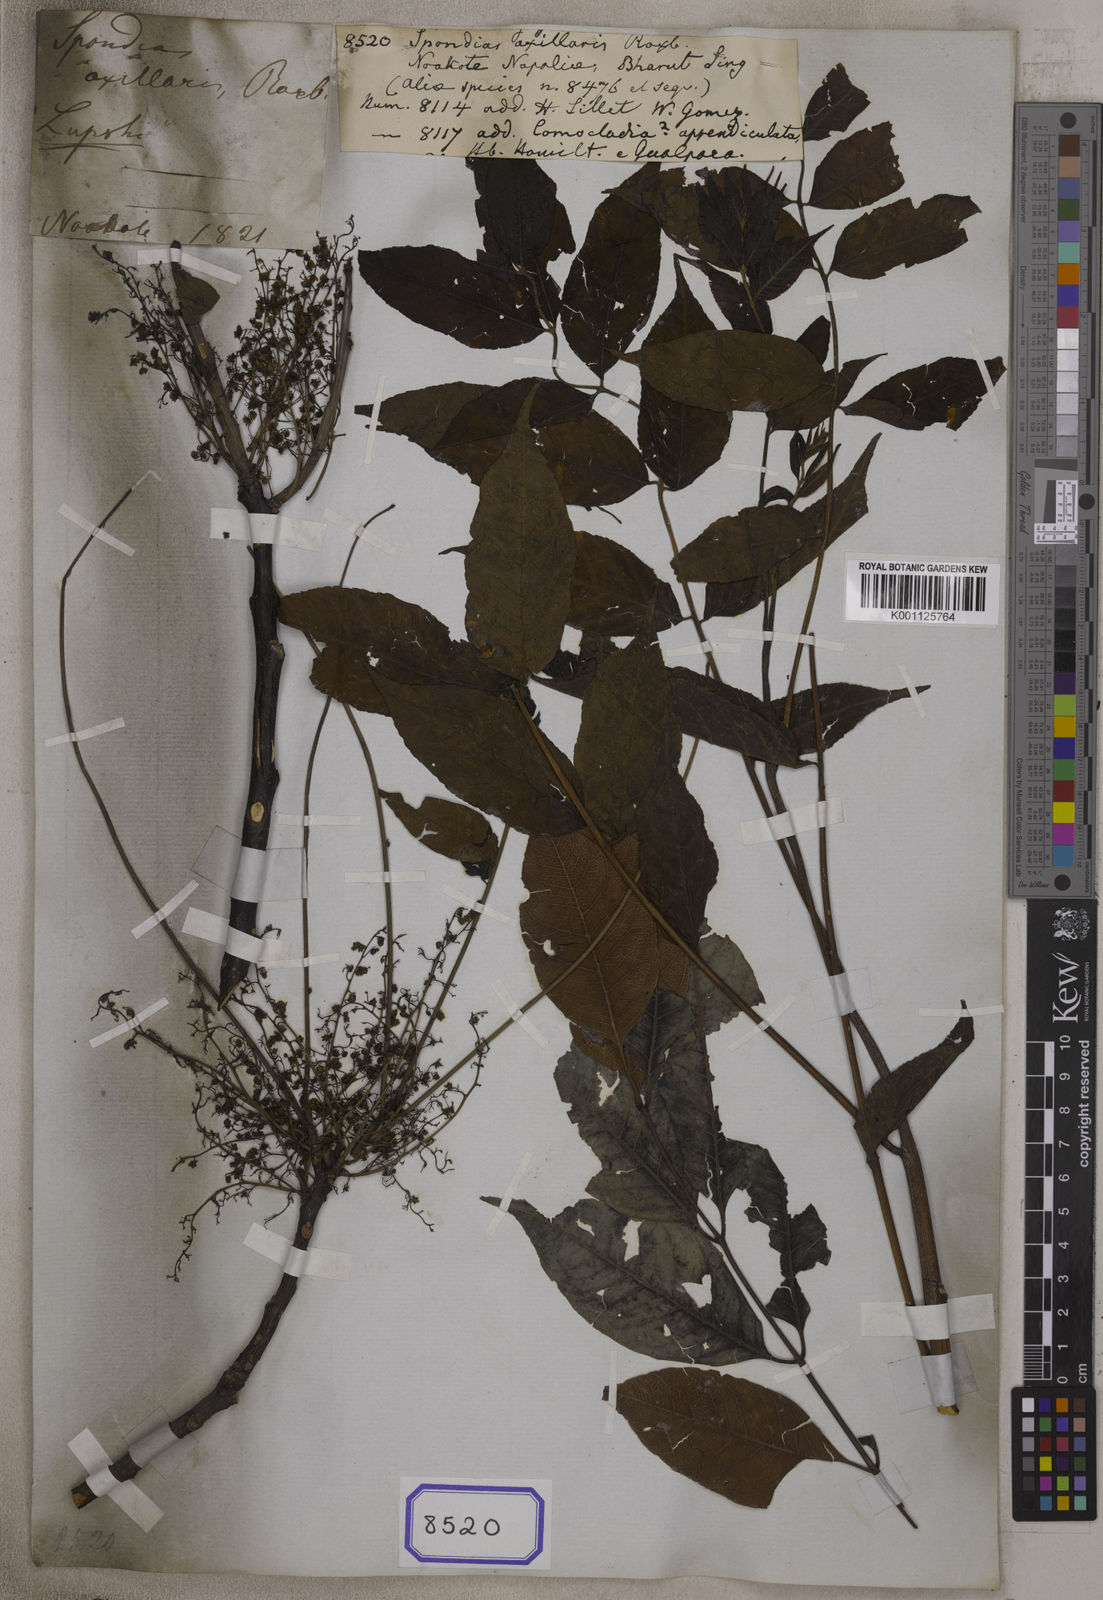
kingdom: Plantae
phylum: Tracheophyta
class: Magnoliopsida
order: Sapindales
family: Anacardiaceae
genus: Choerospondias
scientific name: Choerospondias axillaris
